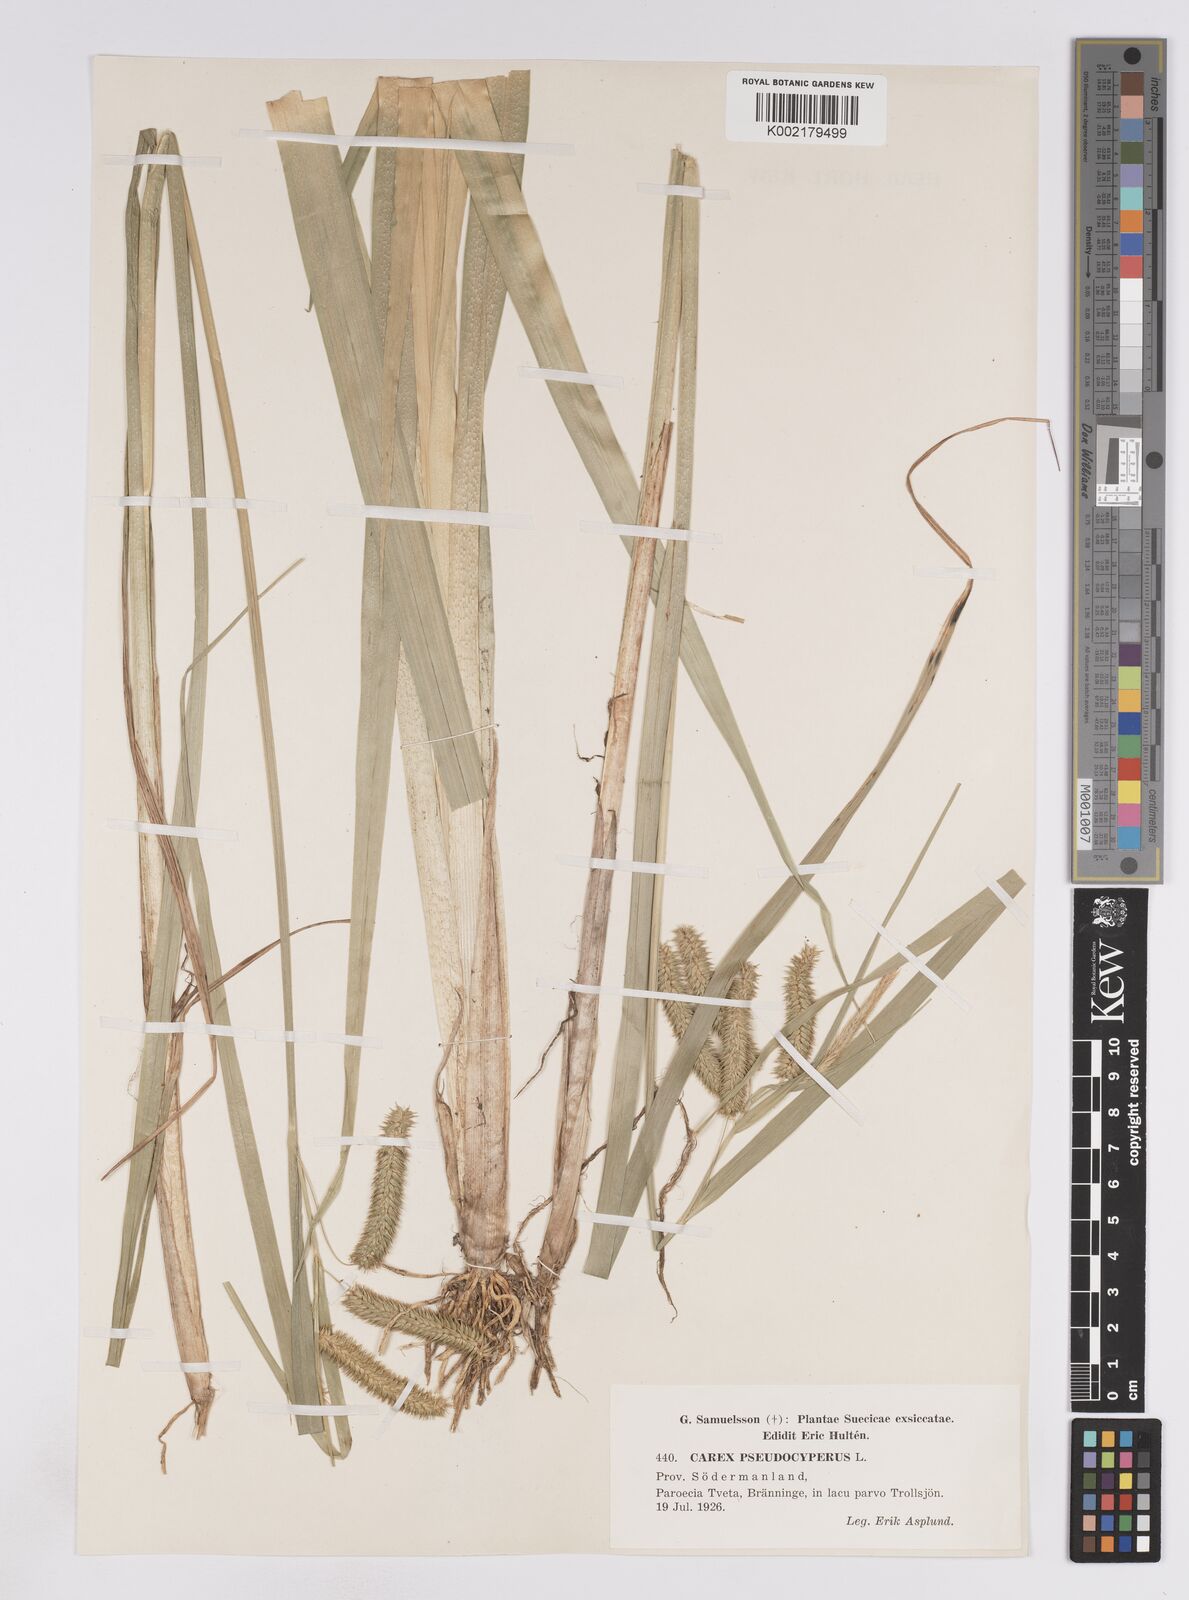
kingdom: Plantae
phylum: Tracheophyta
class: Liliopsida
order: Poales
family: Cyperaceae
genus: Carex
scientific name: Carex pseudocyperus
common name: Cyperus sedge
